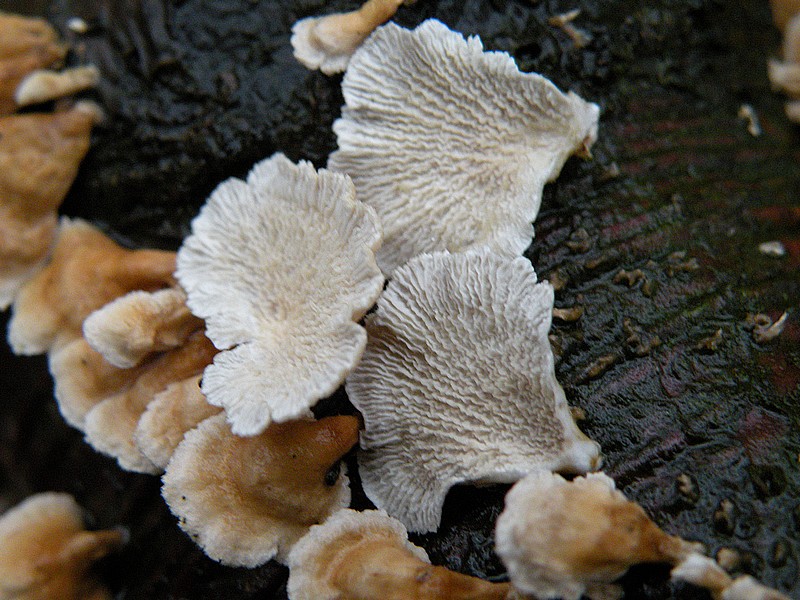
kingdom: Fungi
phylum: Basidiomycota
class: Agaricomycetes
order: Amylocorticiales
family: Amylocorticiaceae
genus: Plicaturopsis
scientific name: Plicaturopsis crispa
